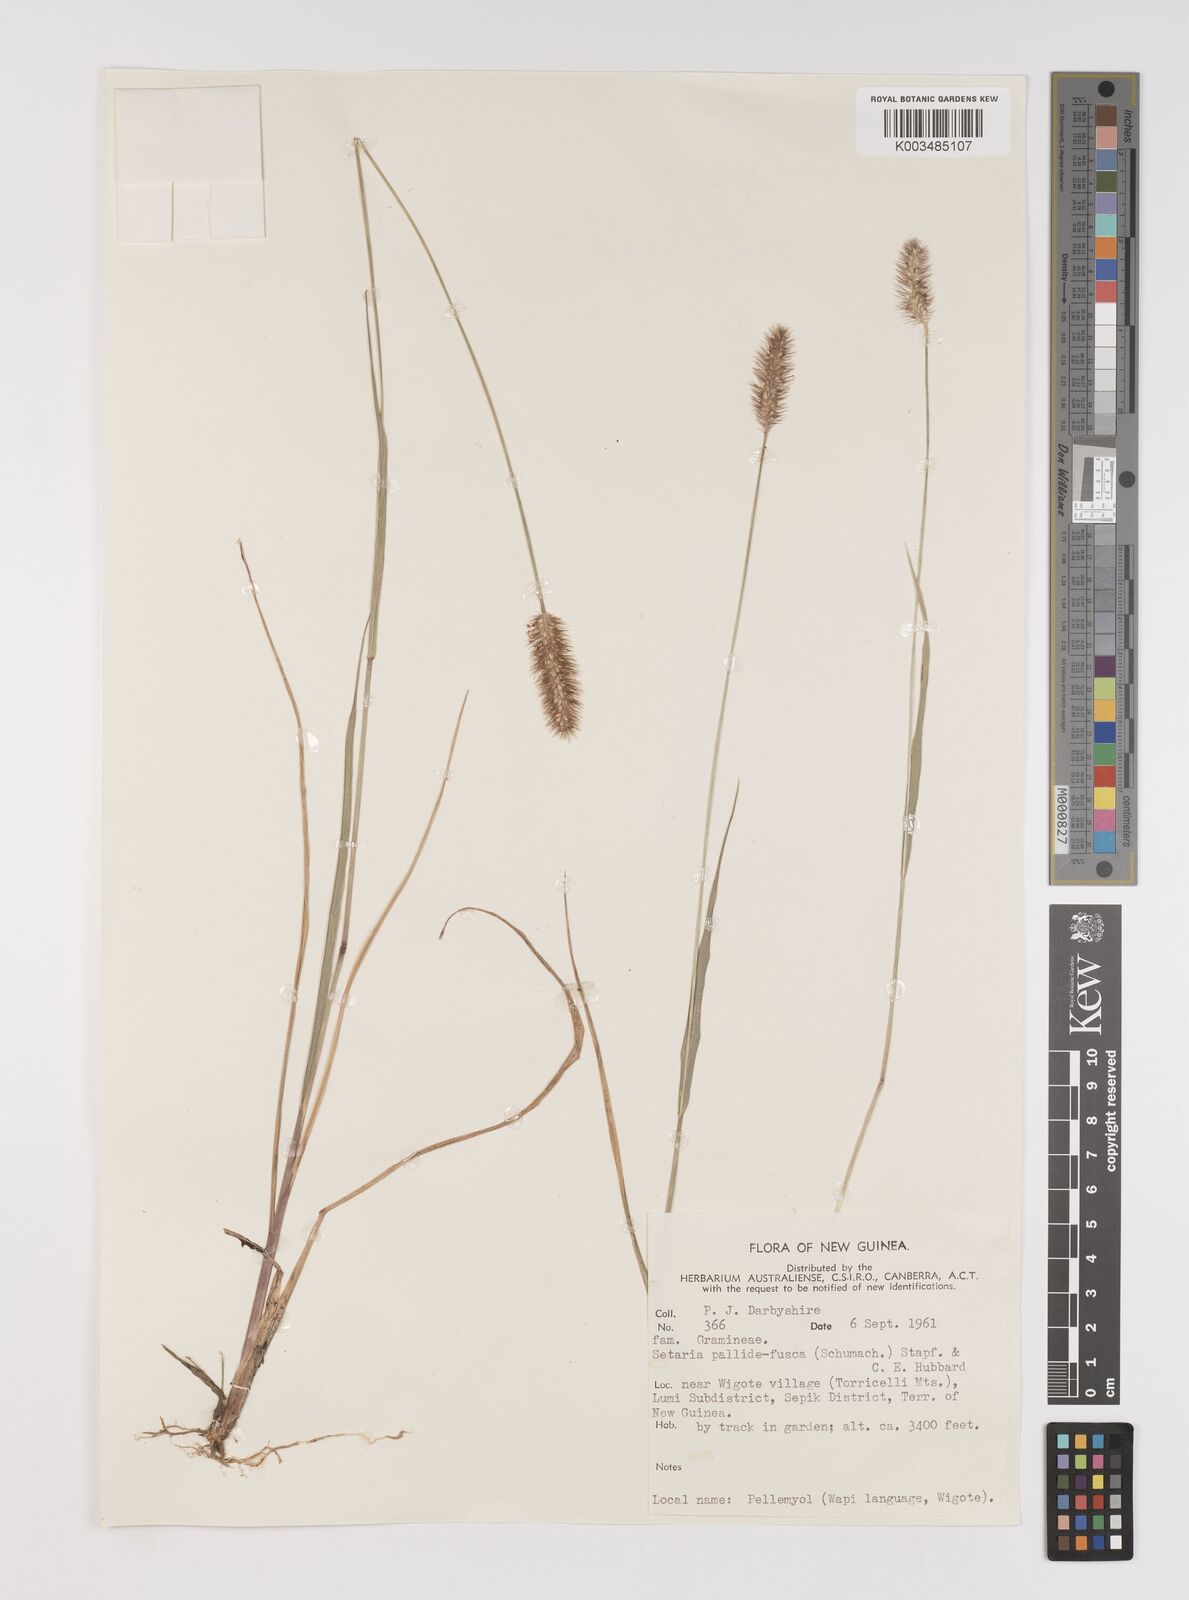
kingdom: Plantae
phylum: Tracheophyta
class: Liliopsida
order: Poales
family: Poaceae
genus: Setaria
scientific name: Setaria parviflora
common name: Knotroot bristle-grass
